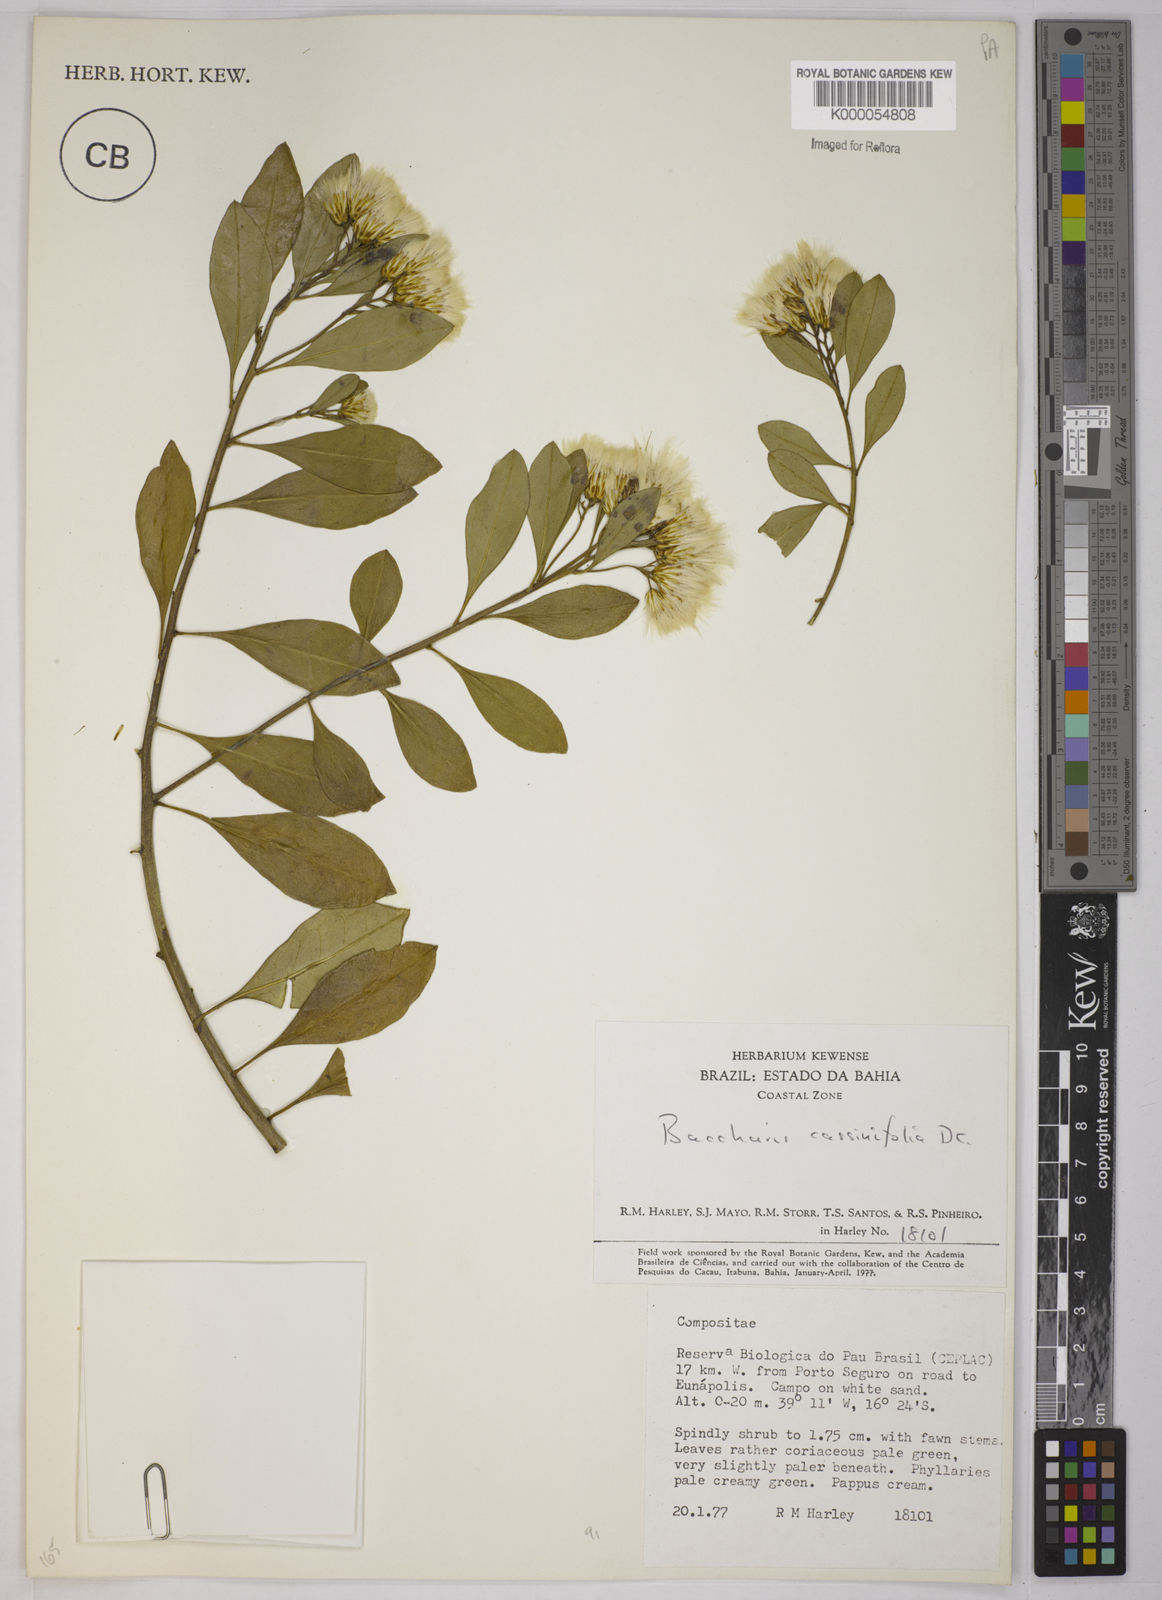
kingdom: Plantae
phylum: Tracheophyta
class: Magnoliopsida
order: Asterales
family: Asteraceae
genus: Baccharis
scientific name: Baccharis singularis
